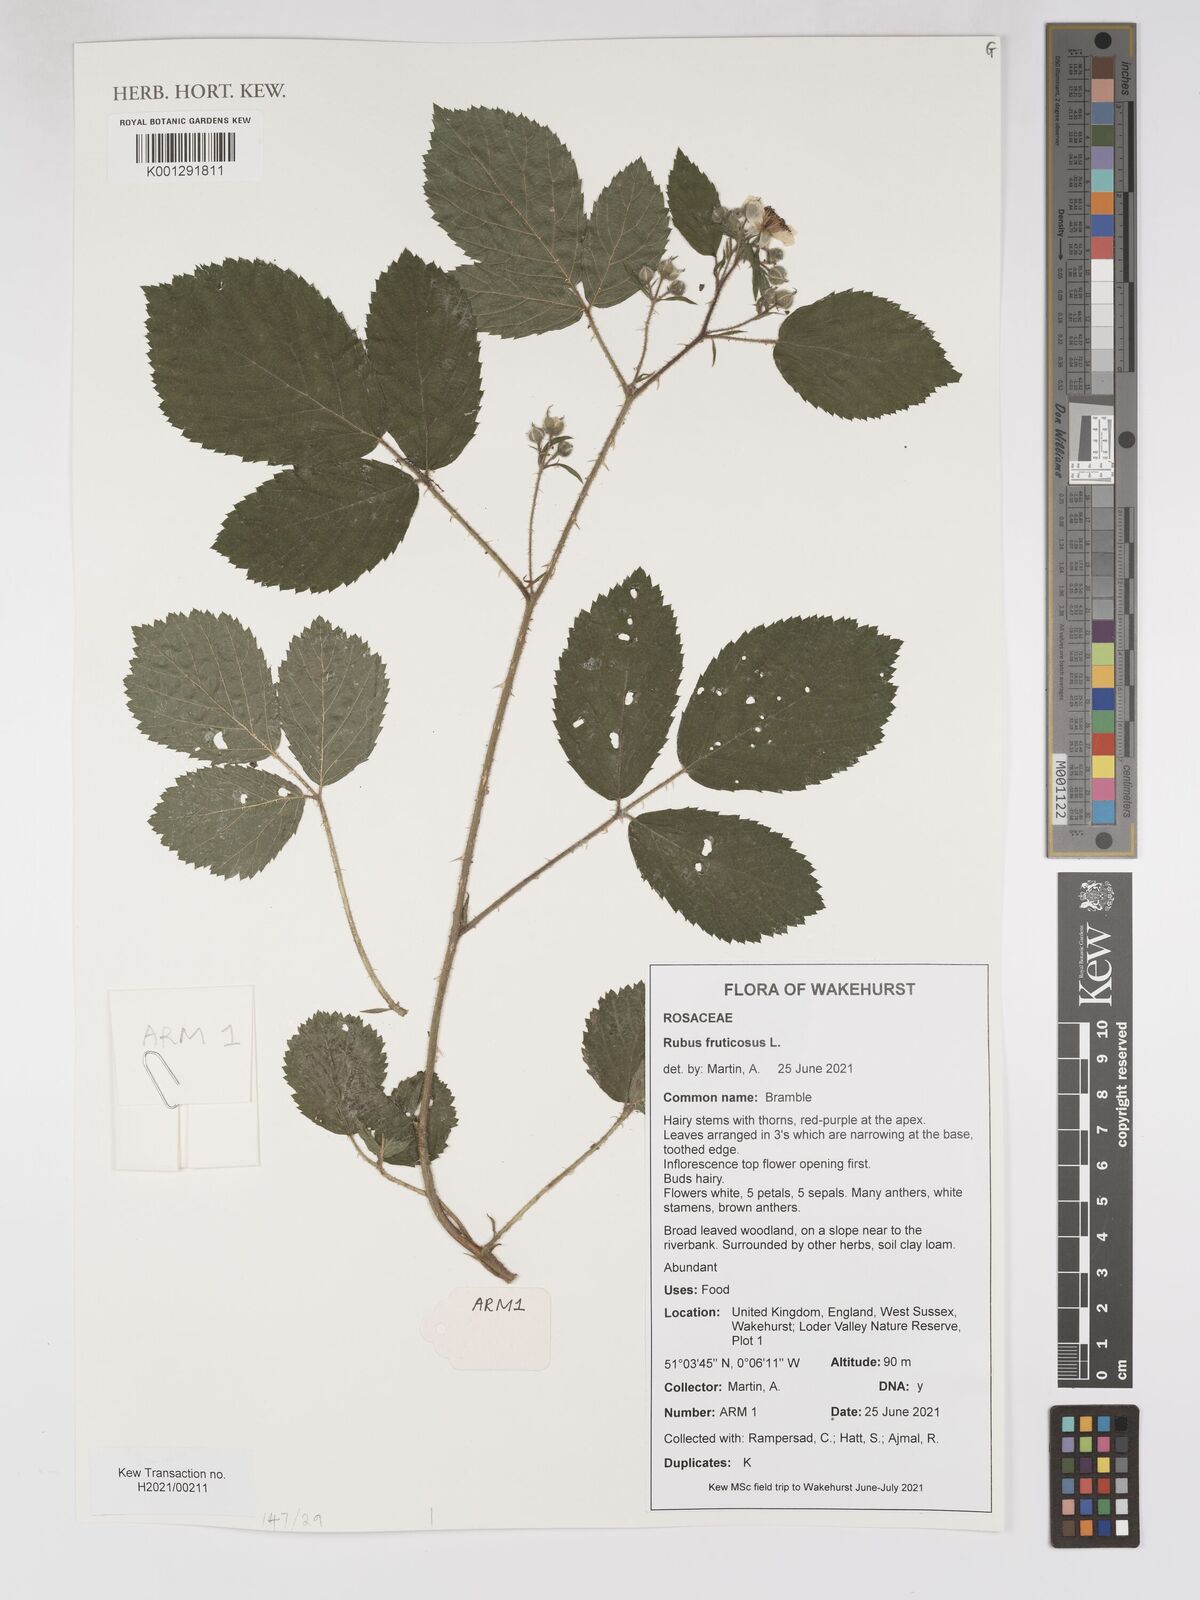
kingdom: Plantae
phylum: Tracheophyta
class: Magnoliopsida
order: Rosales
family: Rosaceae
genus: Rubus
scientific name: Rubus fruticosus
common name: Blackberry, bramble
